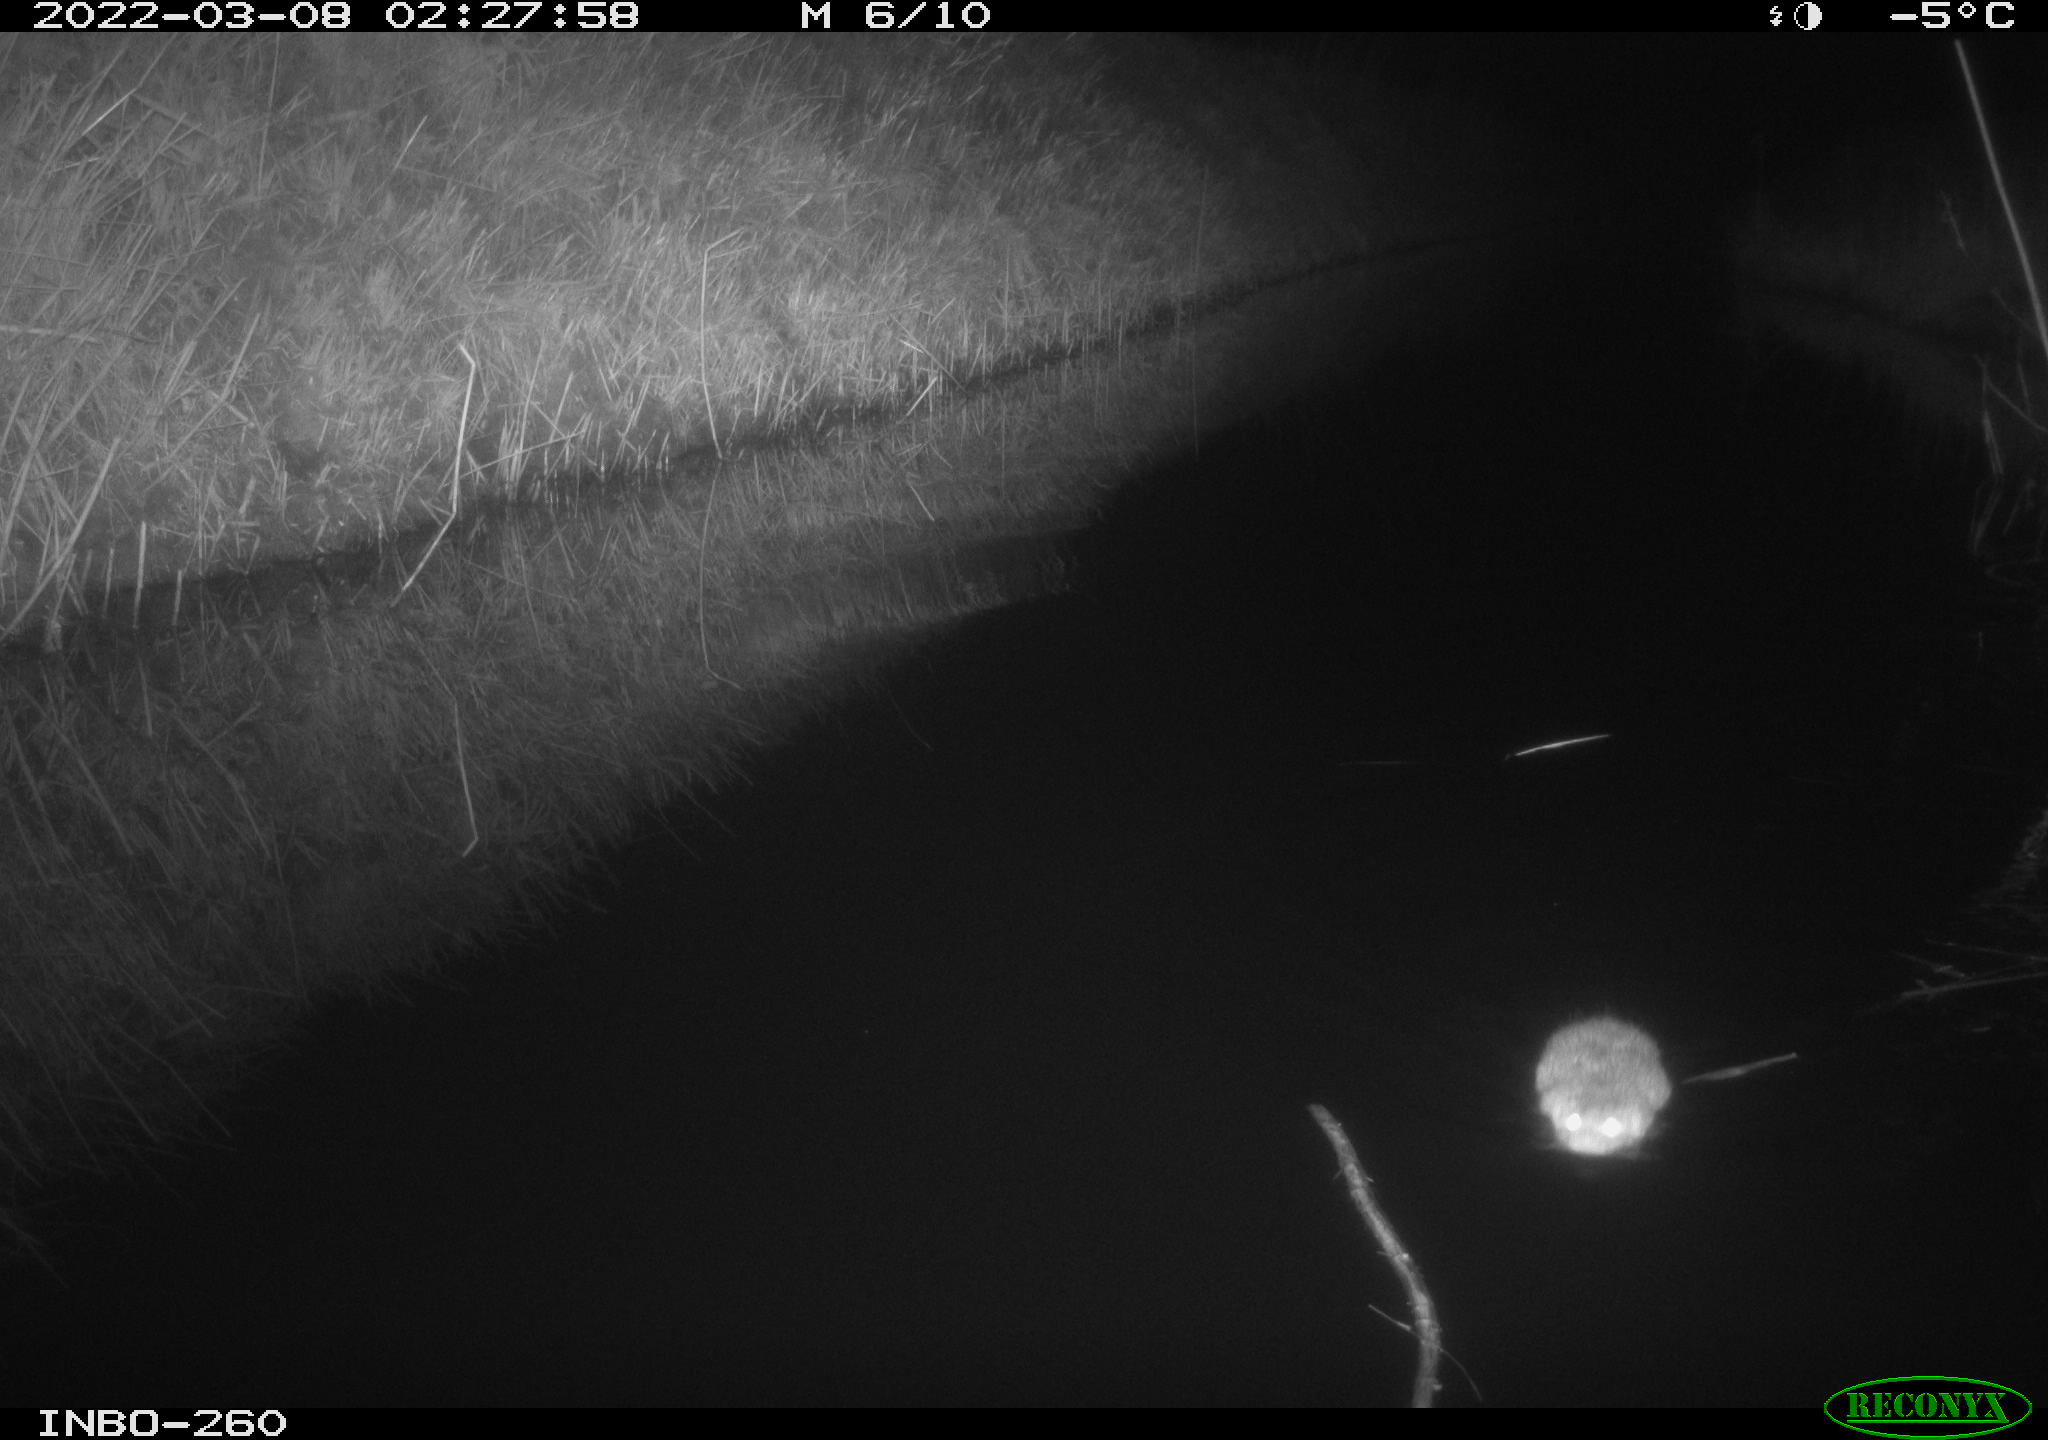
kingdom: Animalia
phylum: Chordata
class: Mammalia
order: Rodentia
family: Cricetidae
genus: Ondatra
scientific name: Ondatra zibethicus
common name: Muskrat
